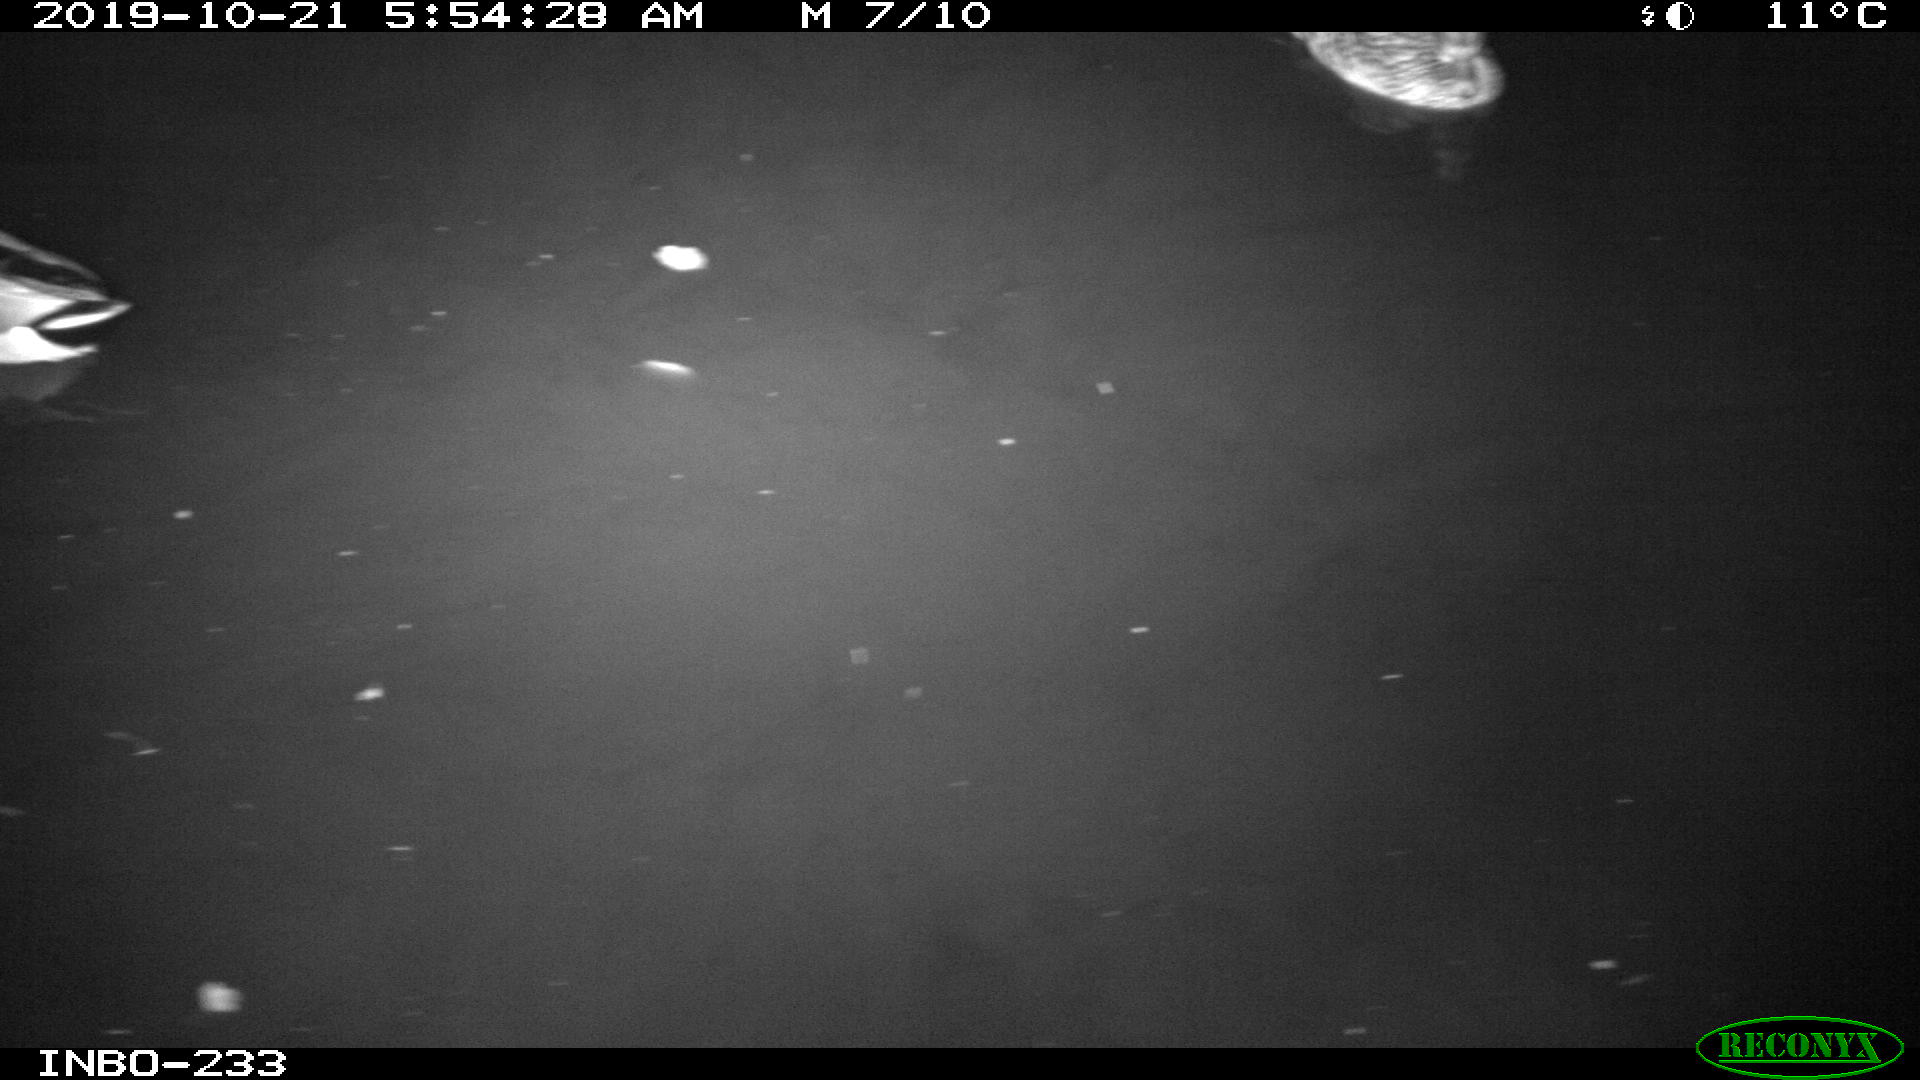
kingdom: Animalia
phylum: Chordata
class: Aves
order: Anseriformes
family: Anatidae
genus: Anas
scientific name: Anas platyrhynchos
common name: Mallard
